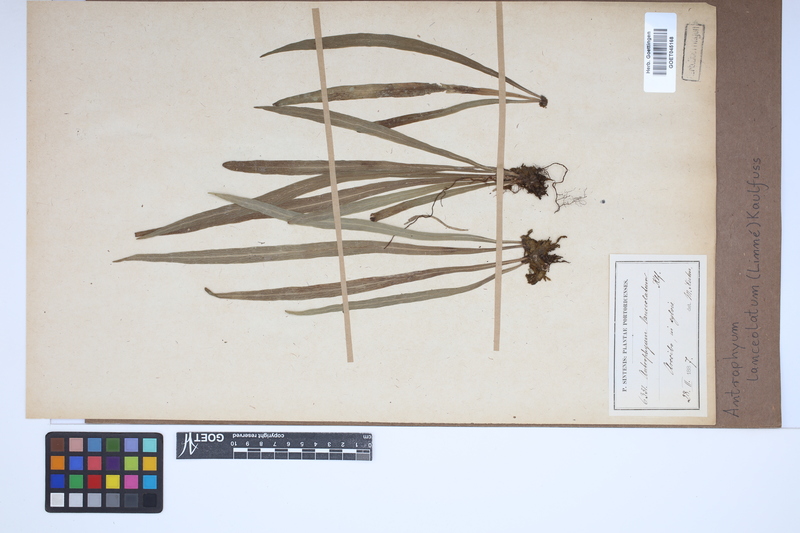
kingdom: Plantae
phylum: Tracheophyta
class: Polypodiopsida
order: Polypodiales
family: Pteridaceae
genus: Polytaenium
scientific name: Polytaenium feei
